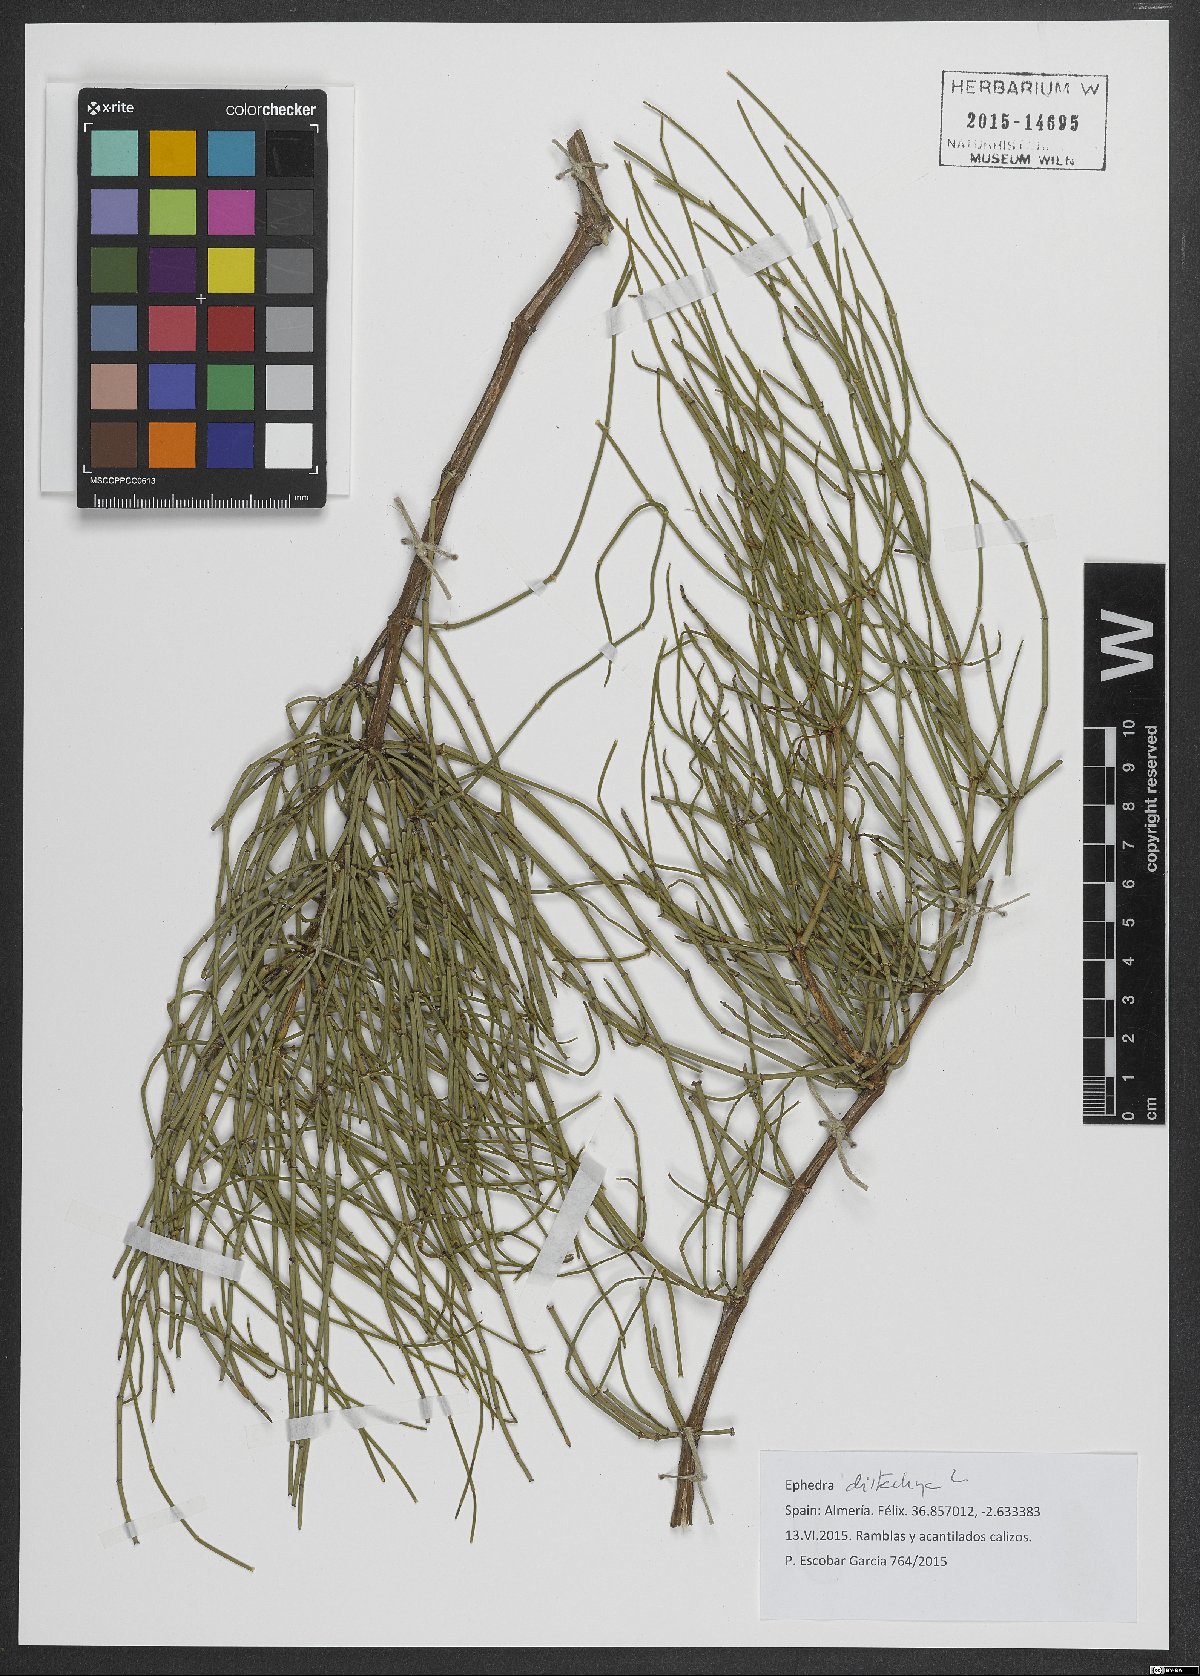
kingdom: Plantae
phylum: Tracheophyta
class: Gnetopsida
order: Ephedrales
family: Ephedraceae
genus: Ephedra
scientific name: Ephedra distachya
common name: Sea grape
